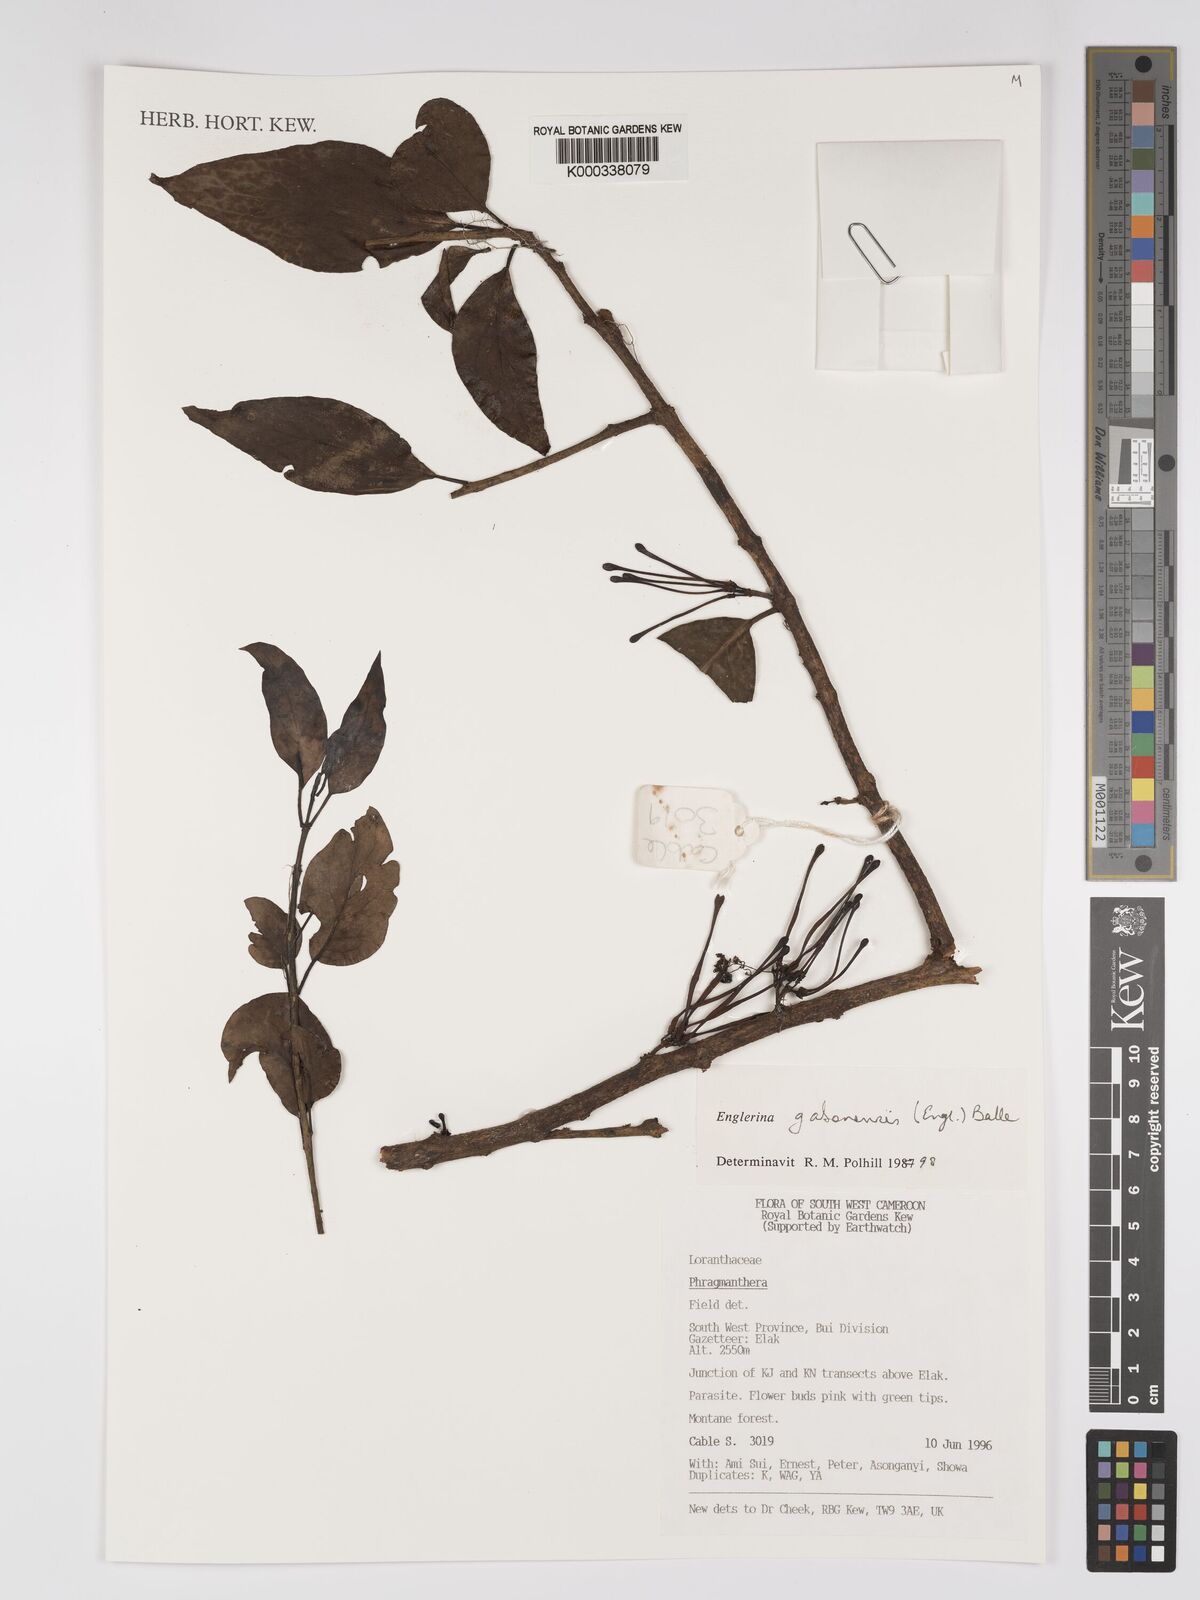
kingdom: Plantae
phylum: Tracheophyta
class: Magnoliopsida
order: Santalales
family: Loranthaceae
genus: Englerina
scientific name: Englerina gabonensis
